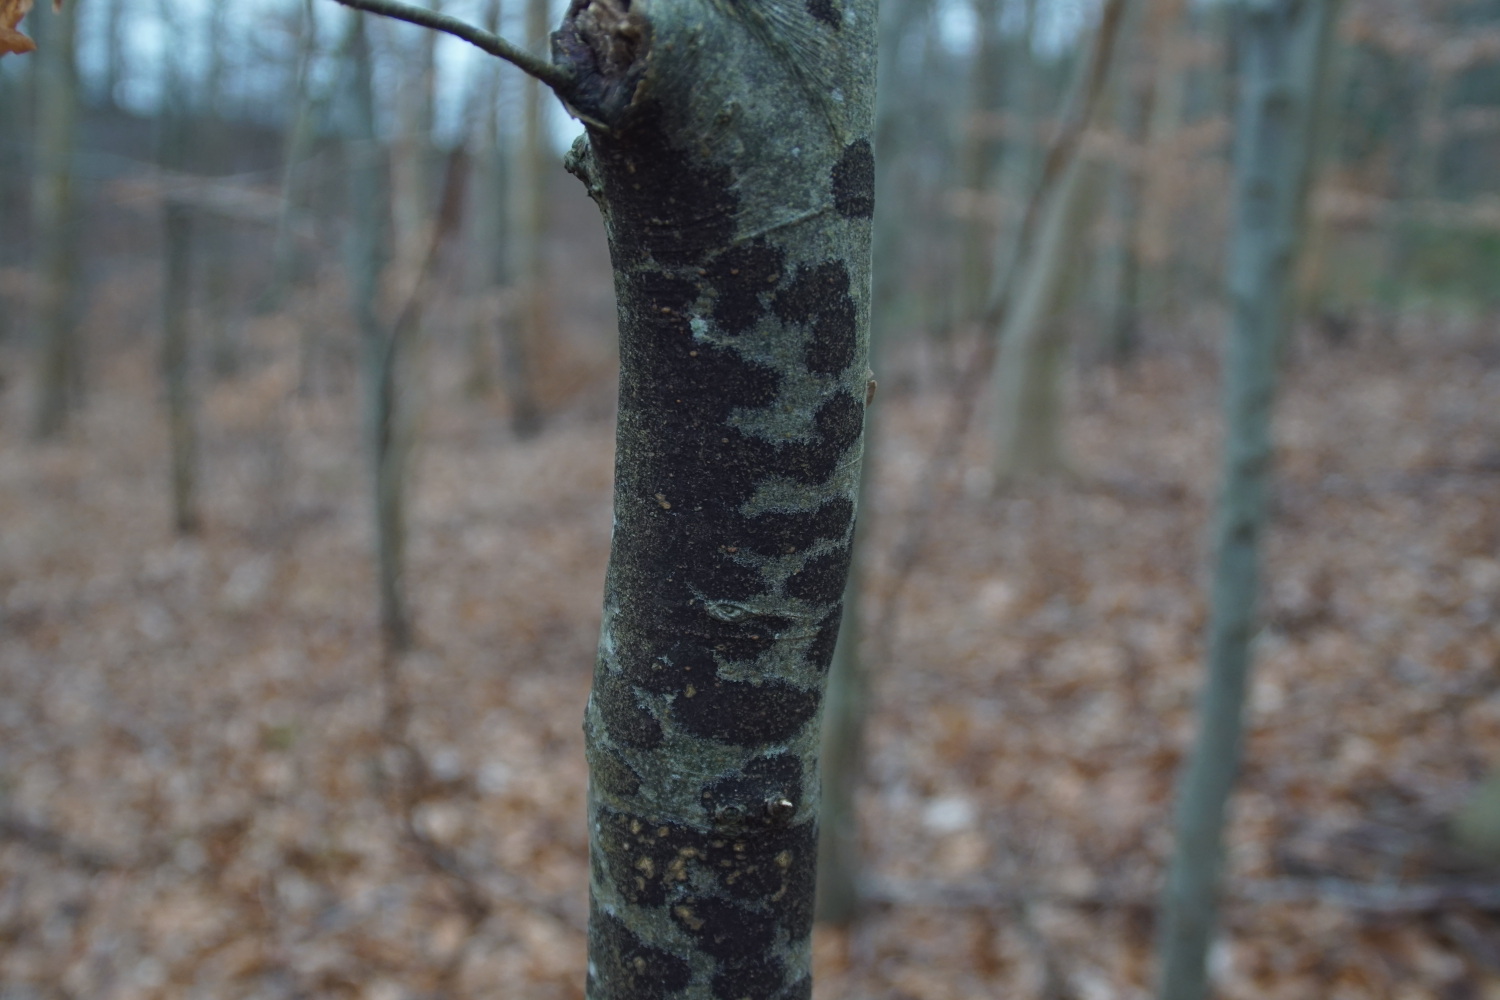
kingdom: Fungi
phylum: Ascomycota
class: Leotiomycetes
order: Rhytismatales
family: Ascodichaenaceae
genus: Ascodichaena
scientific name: Ascodichaena rugosa
